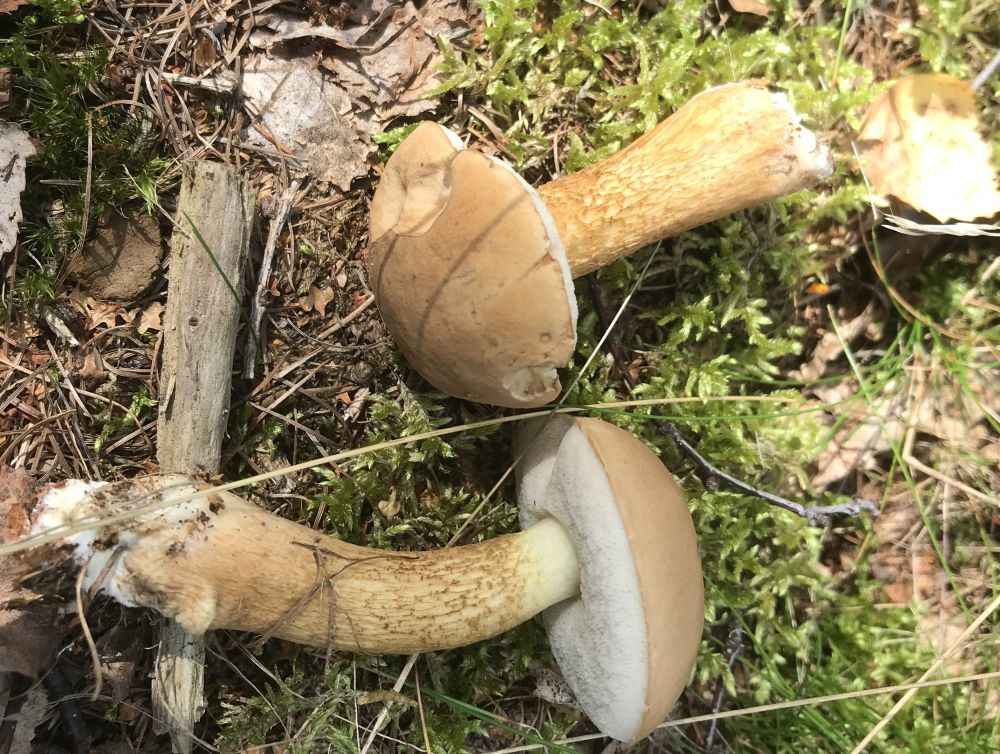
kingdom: Fungi
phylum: Basidiomycota
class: Agaricomycetes
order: Boletales
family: Boletaceae
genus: Tylopilus
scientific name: Tylopilus felleus
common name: galderørhat
